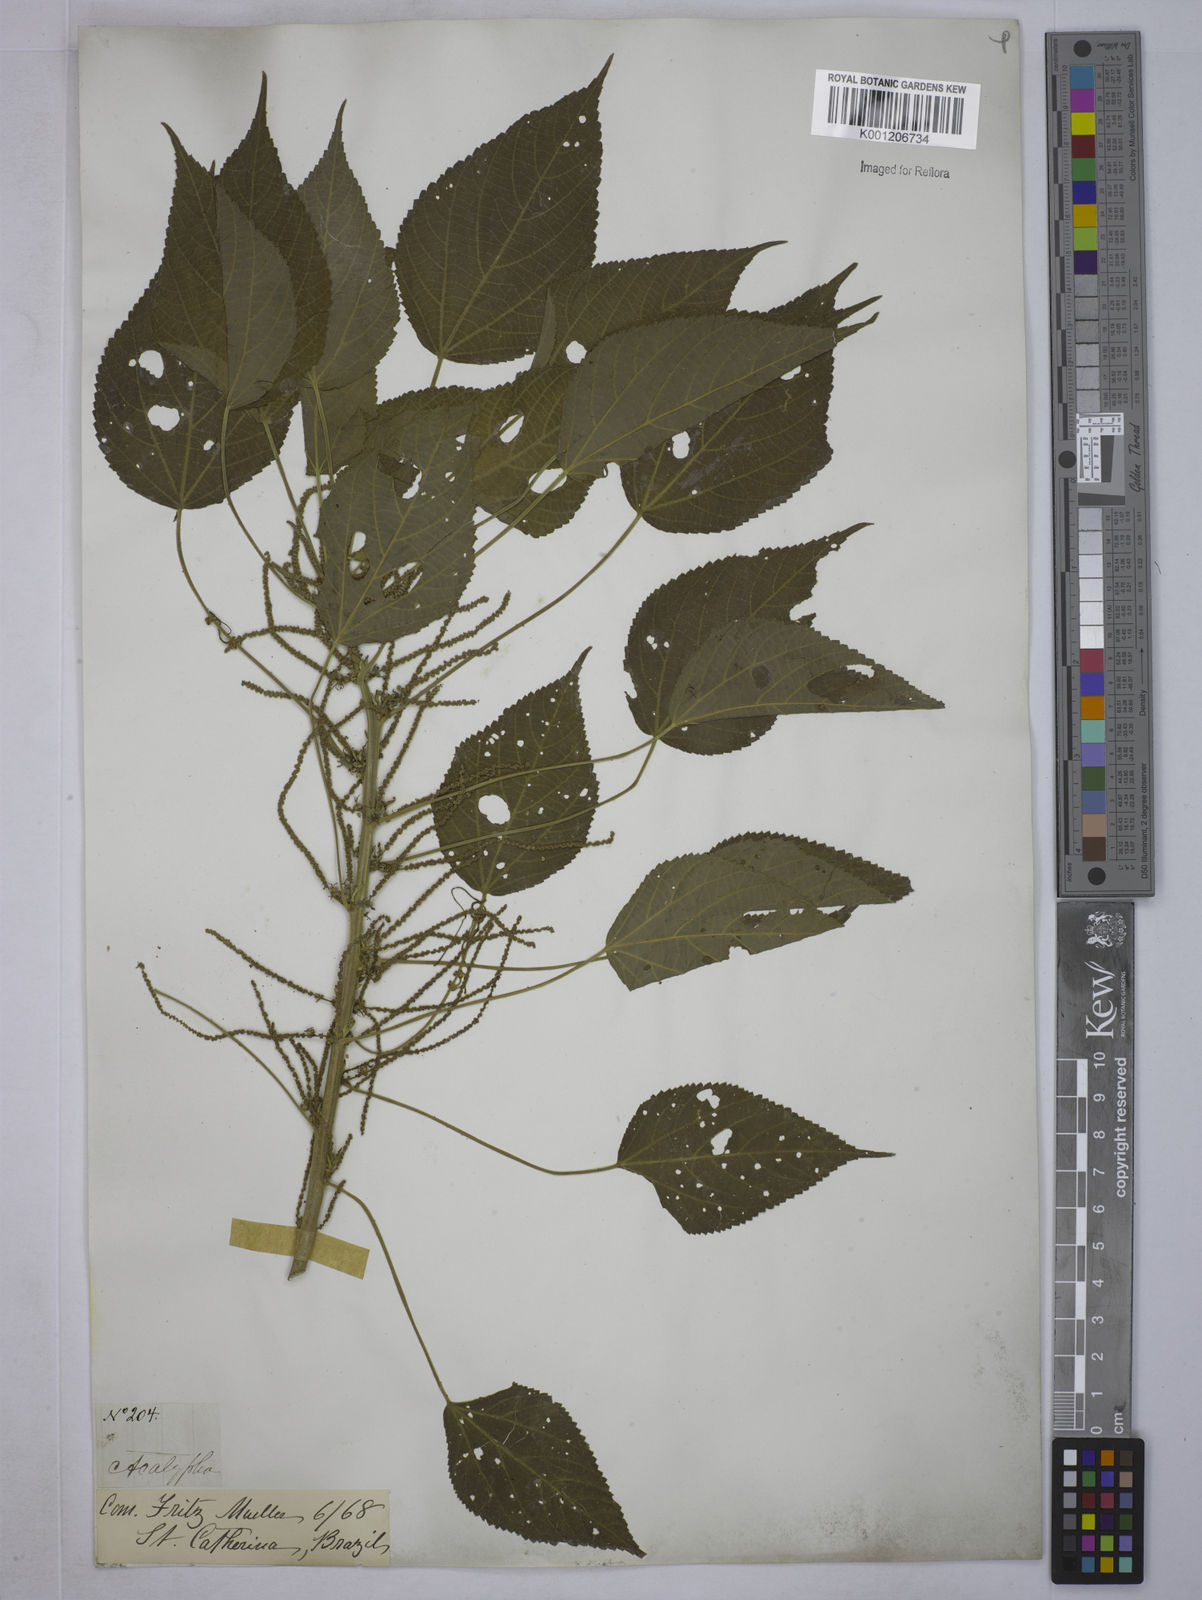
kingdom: Plantae
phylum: Tracheophyta
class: Magnoliopsida
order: Malpighiales
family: Euphorbiaceae
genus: Acalypha
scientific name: Acalypha weddelliana
